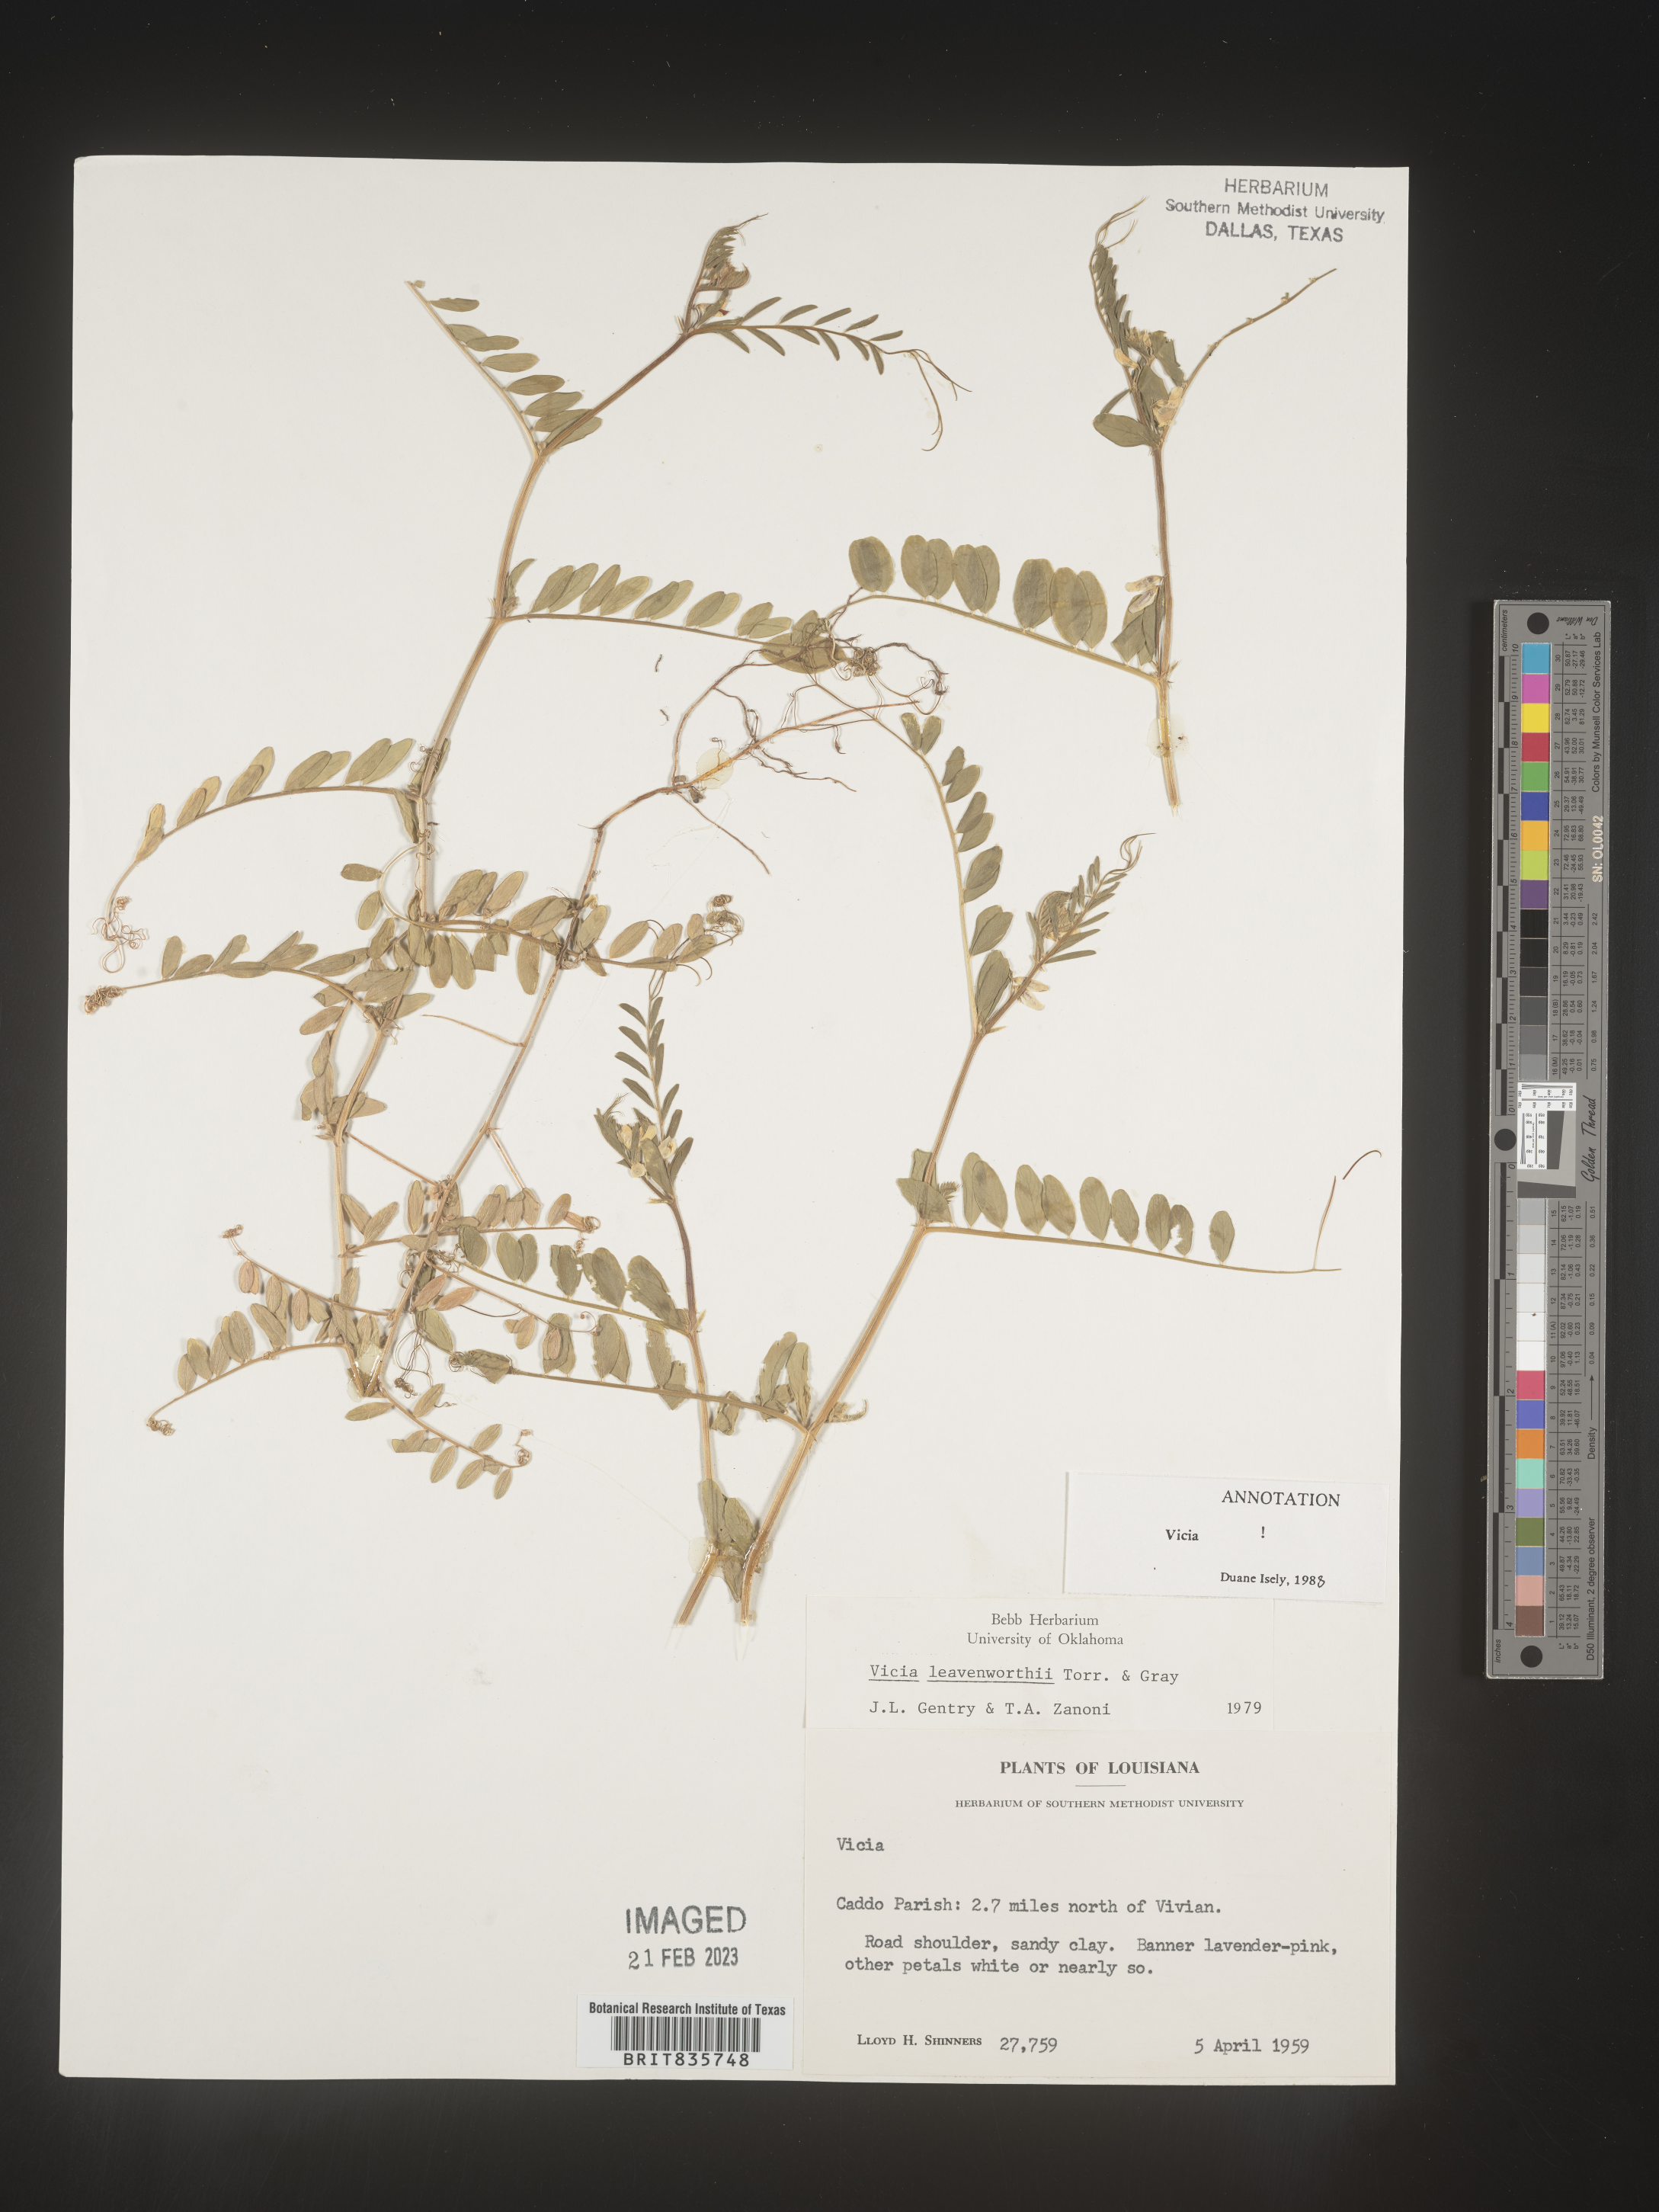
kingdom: Plantae
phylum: Tracheophyta
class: Magnoliopsida
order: Fabales
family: Fabaceae
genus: Vicia
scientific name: Vicia
